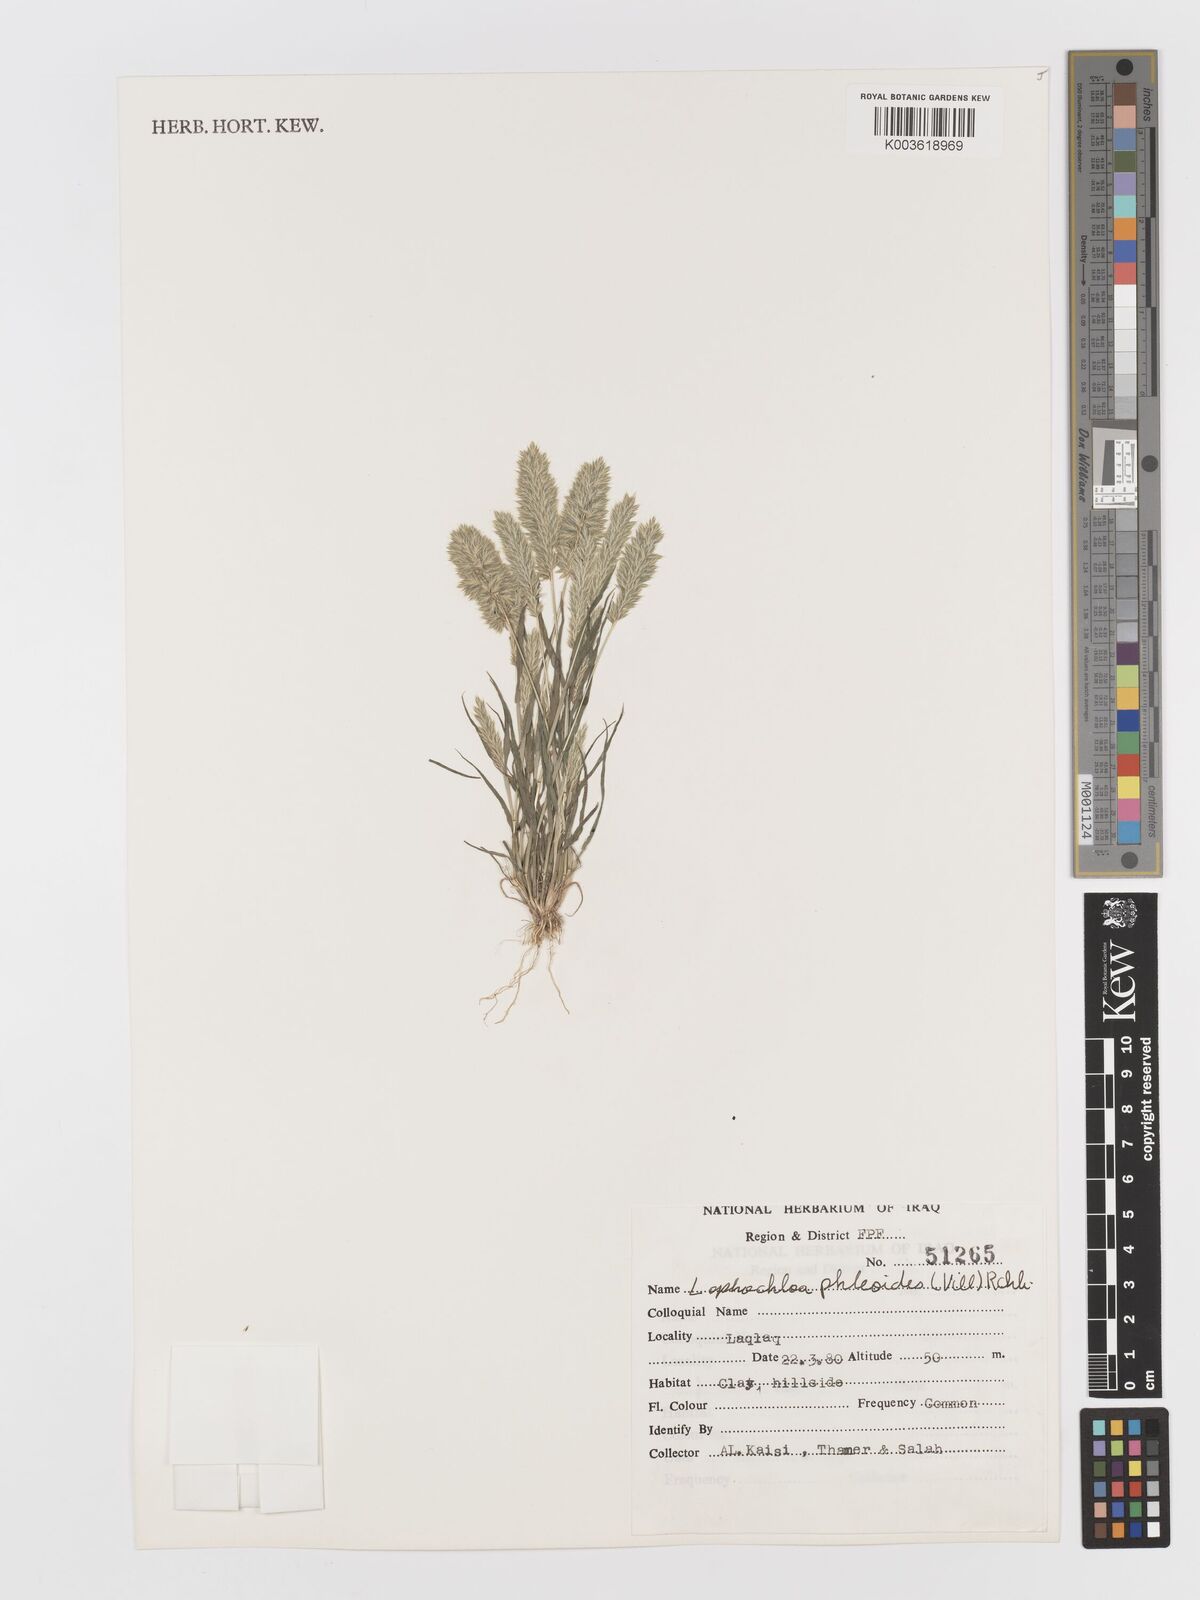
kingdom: Plantae
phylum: Tracheophyta
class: Liliopsida
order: Poales
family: Poaceae
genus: Rostraria
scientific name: Rostraria cristata
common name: Mediterranean hair-grass
